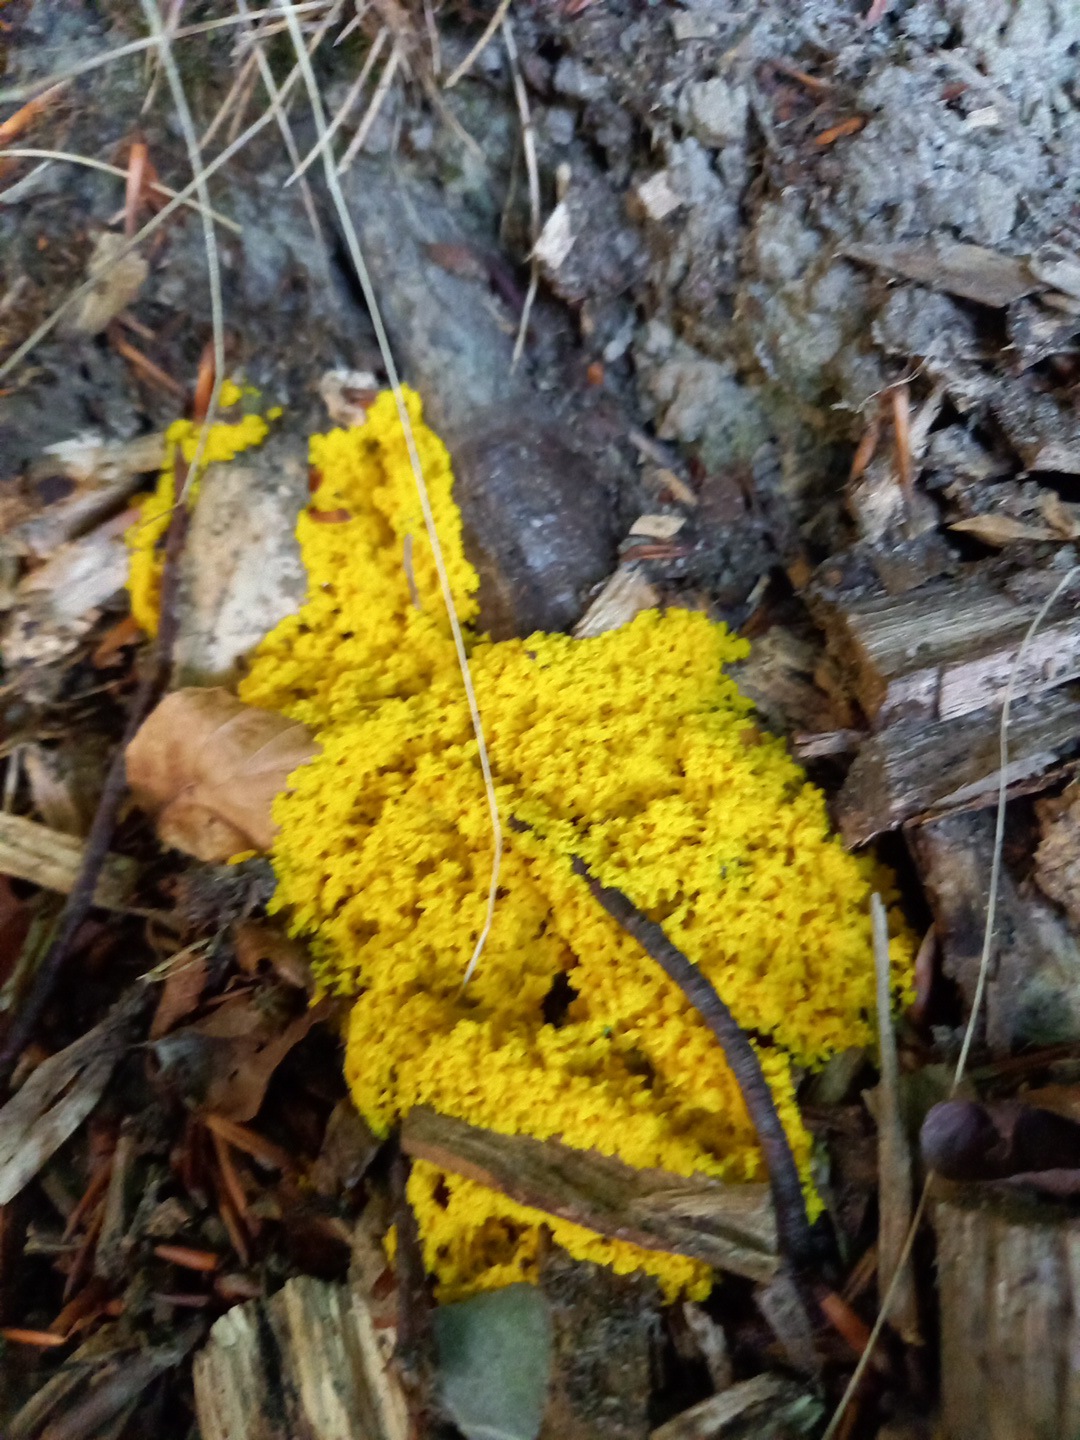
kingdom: Protozoa
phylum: Mycetozoa
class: Myxomycetes
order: Physarales
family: Physaraceae
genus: Fuligo
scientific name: Fuligo septica
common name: gul troldsmør
